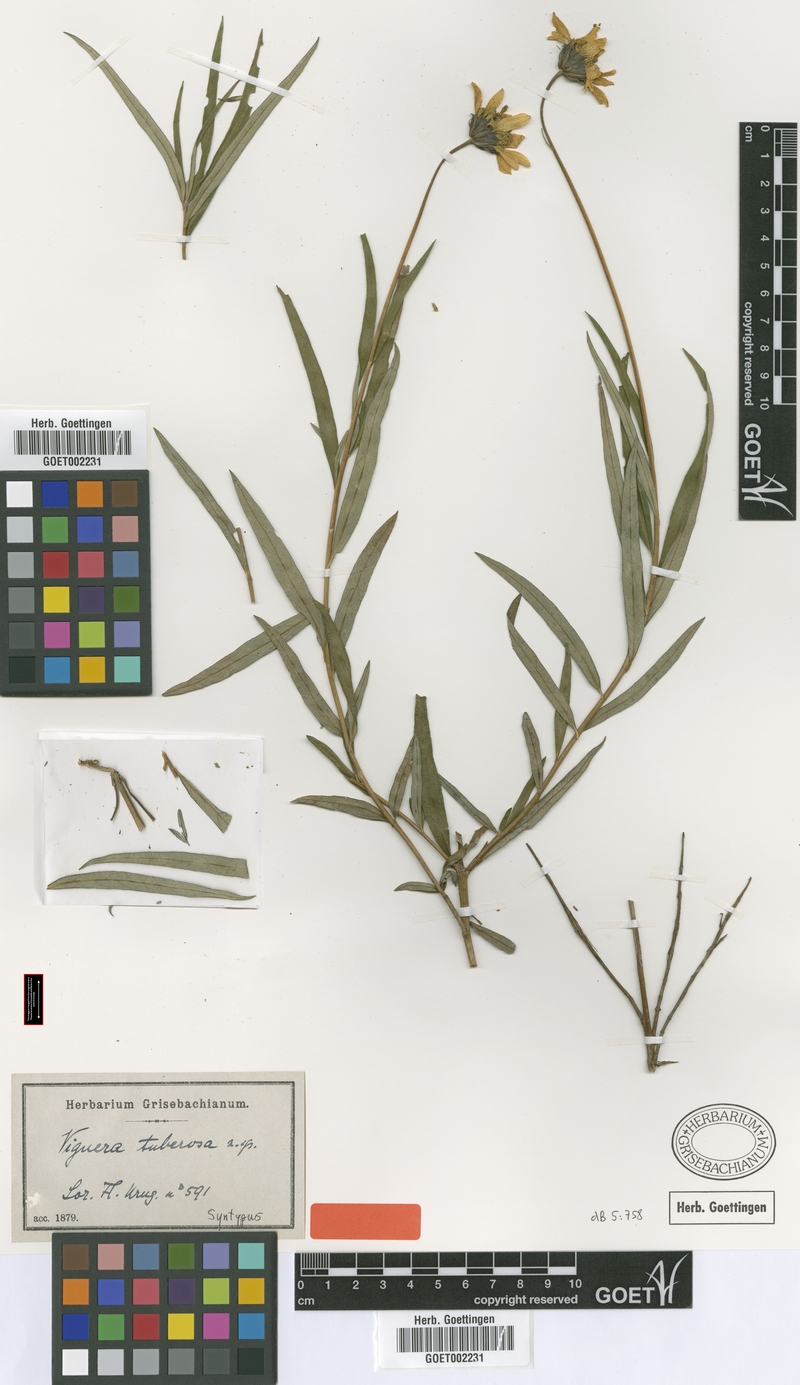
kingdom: Plantae
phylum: Tracheophyta
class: Magnoliopsida
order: Asterales
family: Asteraceae
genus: Aldama
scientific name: Aldama tuberosa
